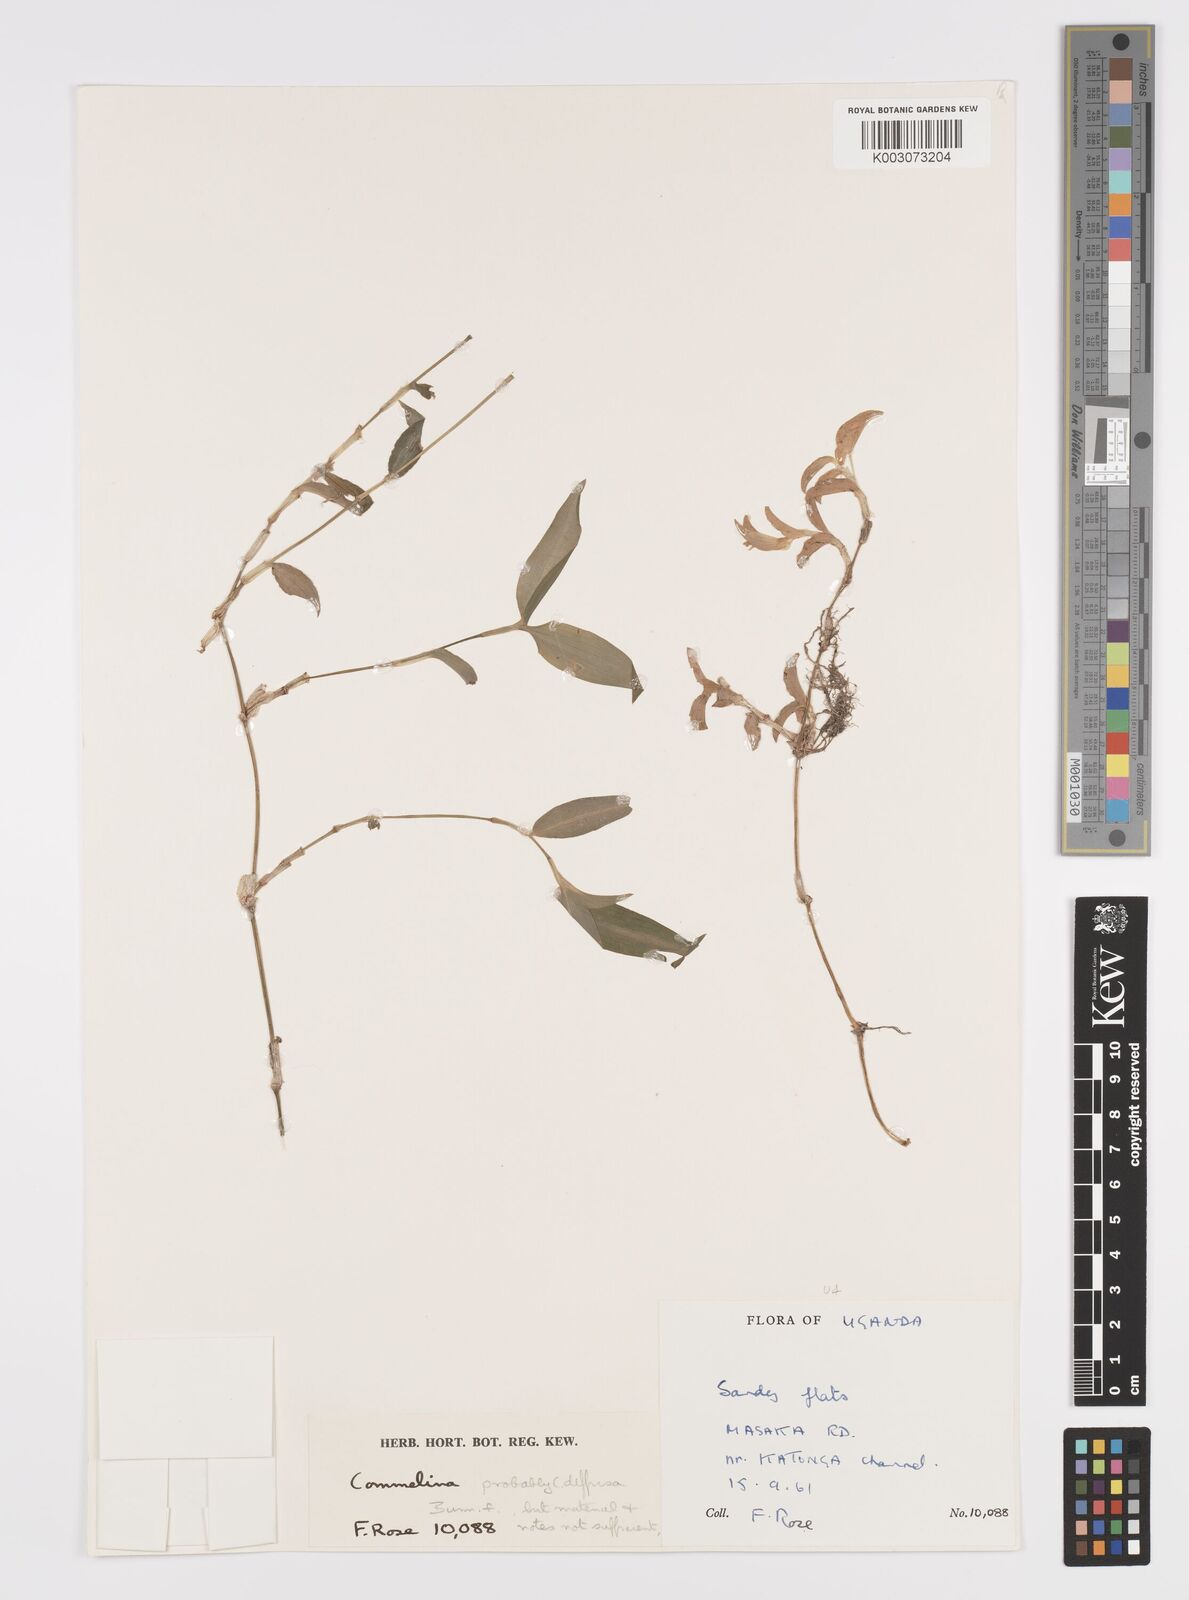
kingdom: Plantae
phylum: Tracheophyta
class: Liliopsida
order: Commelinales
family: Commelinaceae
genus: Commelina
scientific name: Commelina africana
